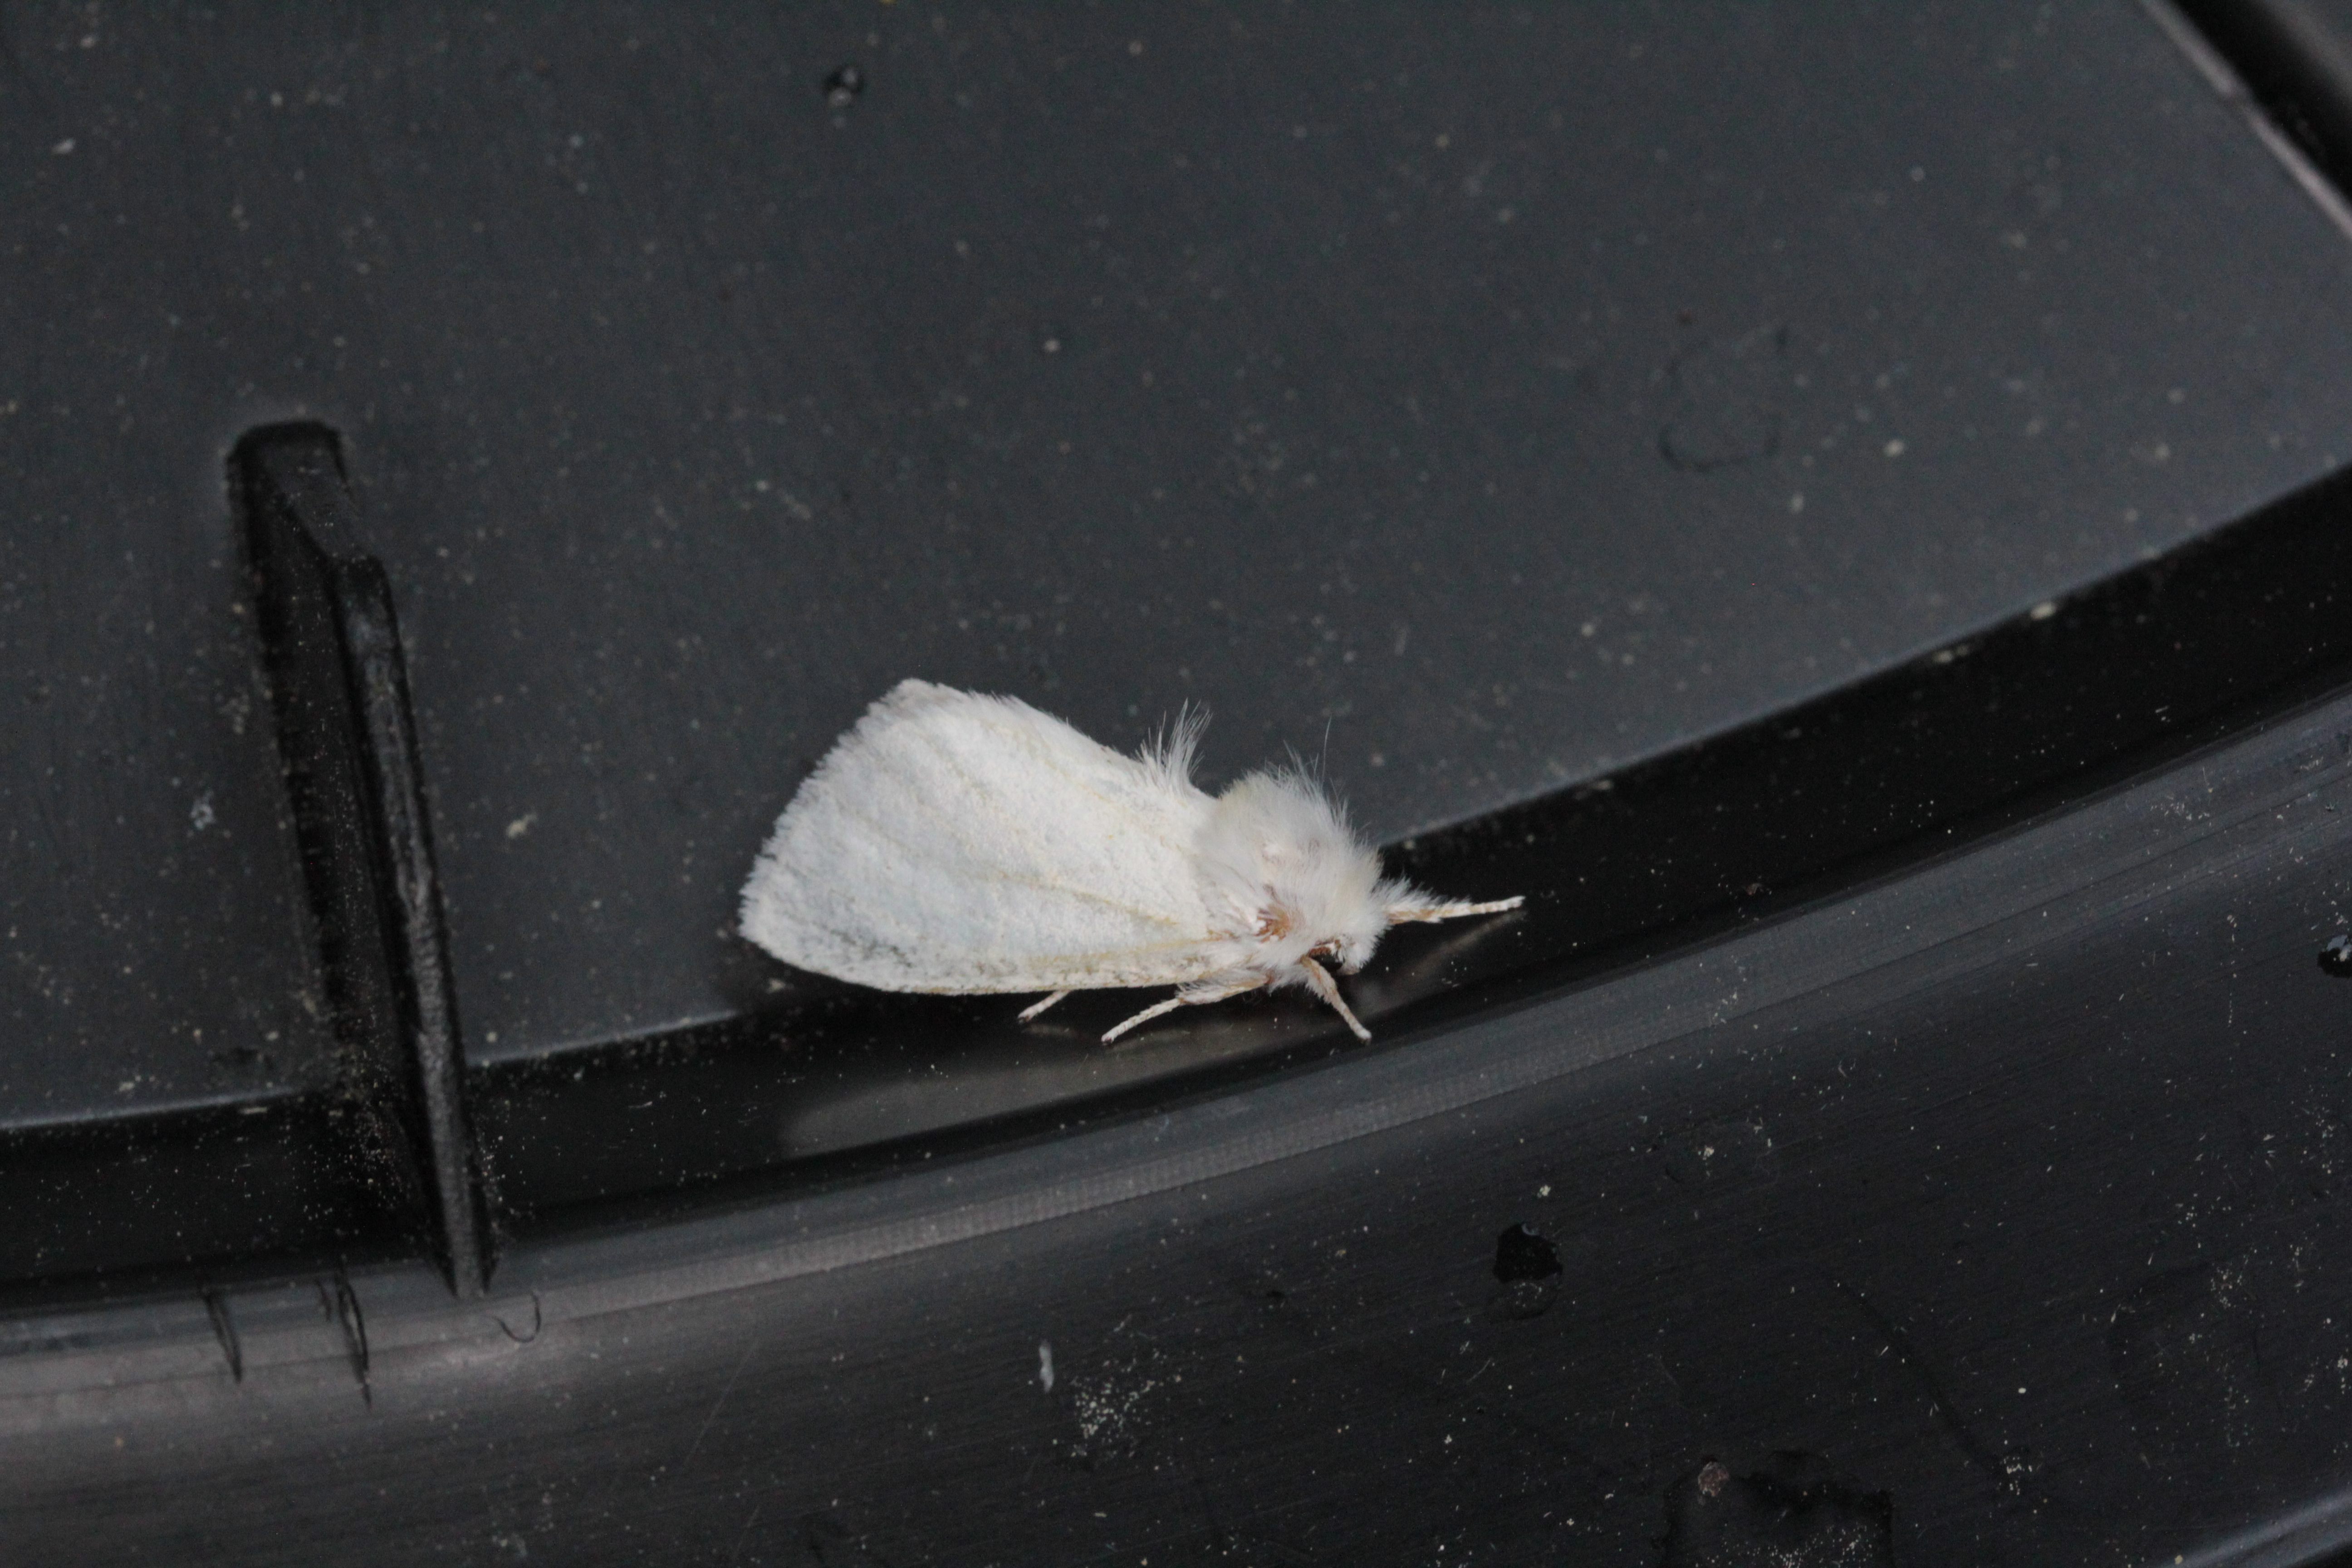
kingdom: Animalia
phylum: Arthropoda
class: Insecta
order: Lepidoptera
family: Notodontidae
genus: Leucodonta
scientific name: Leucodonta bicoloria
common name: White prominent
